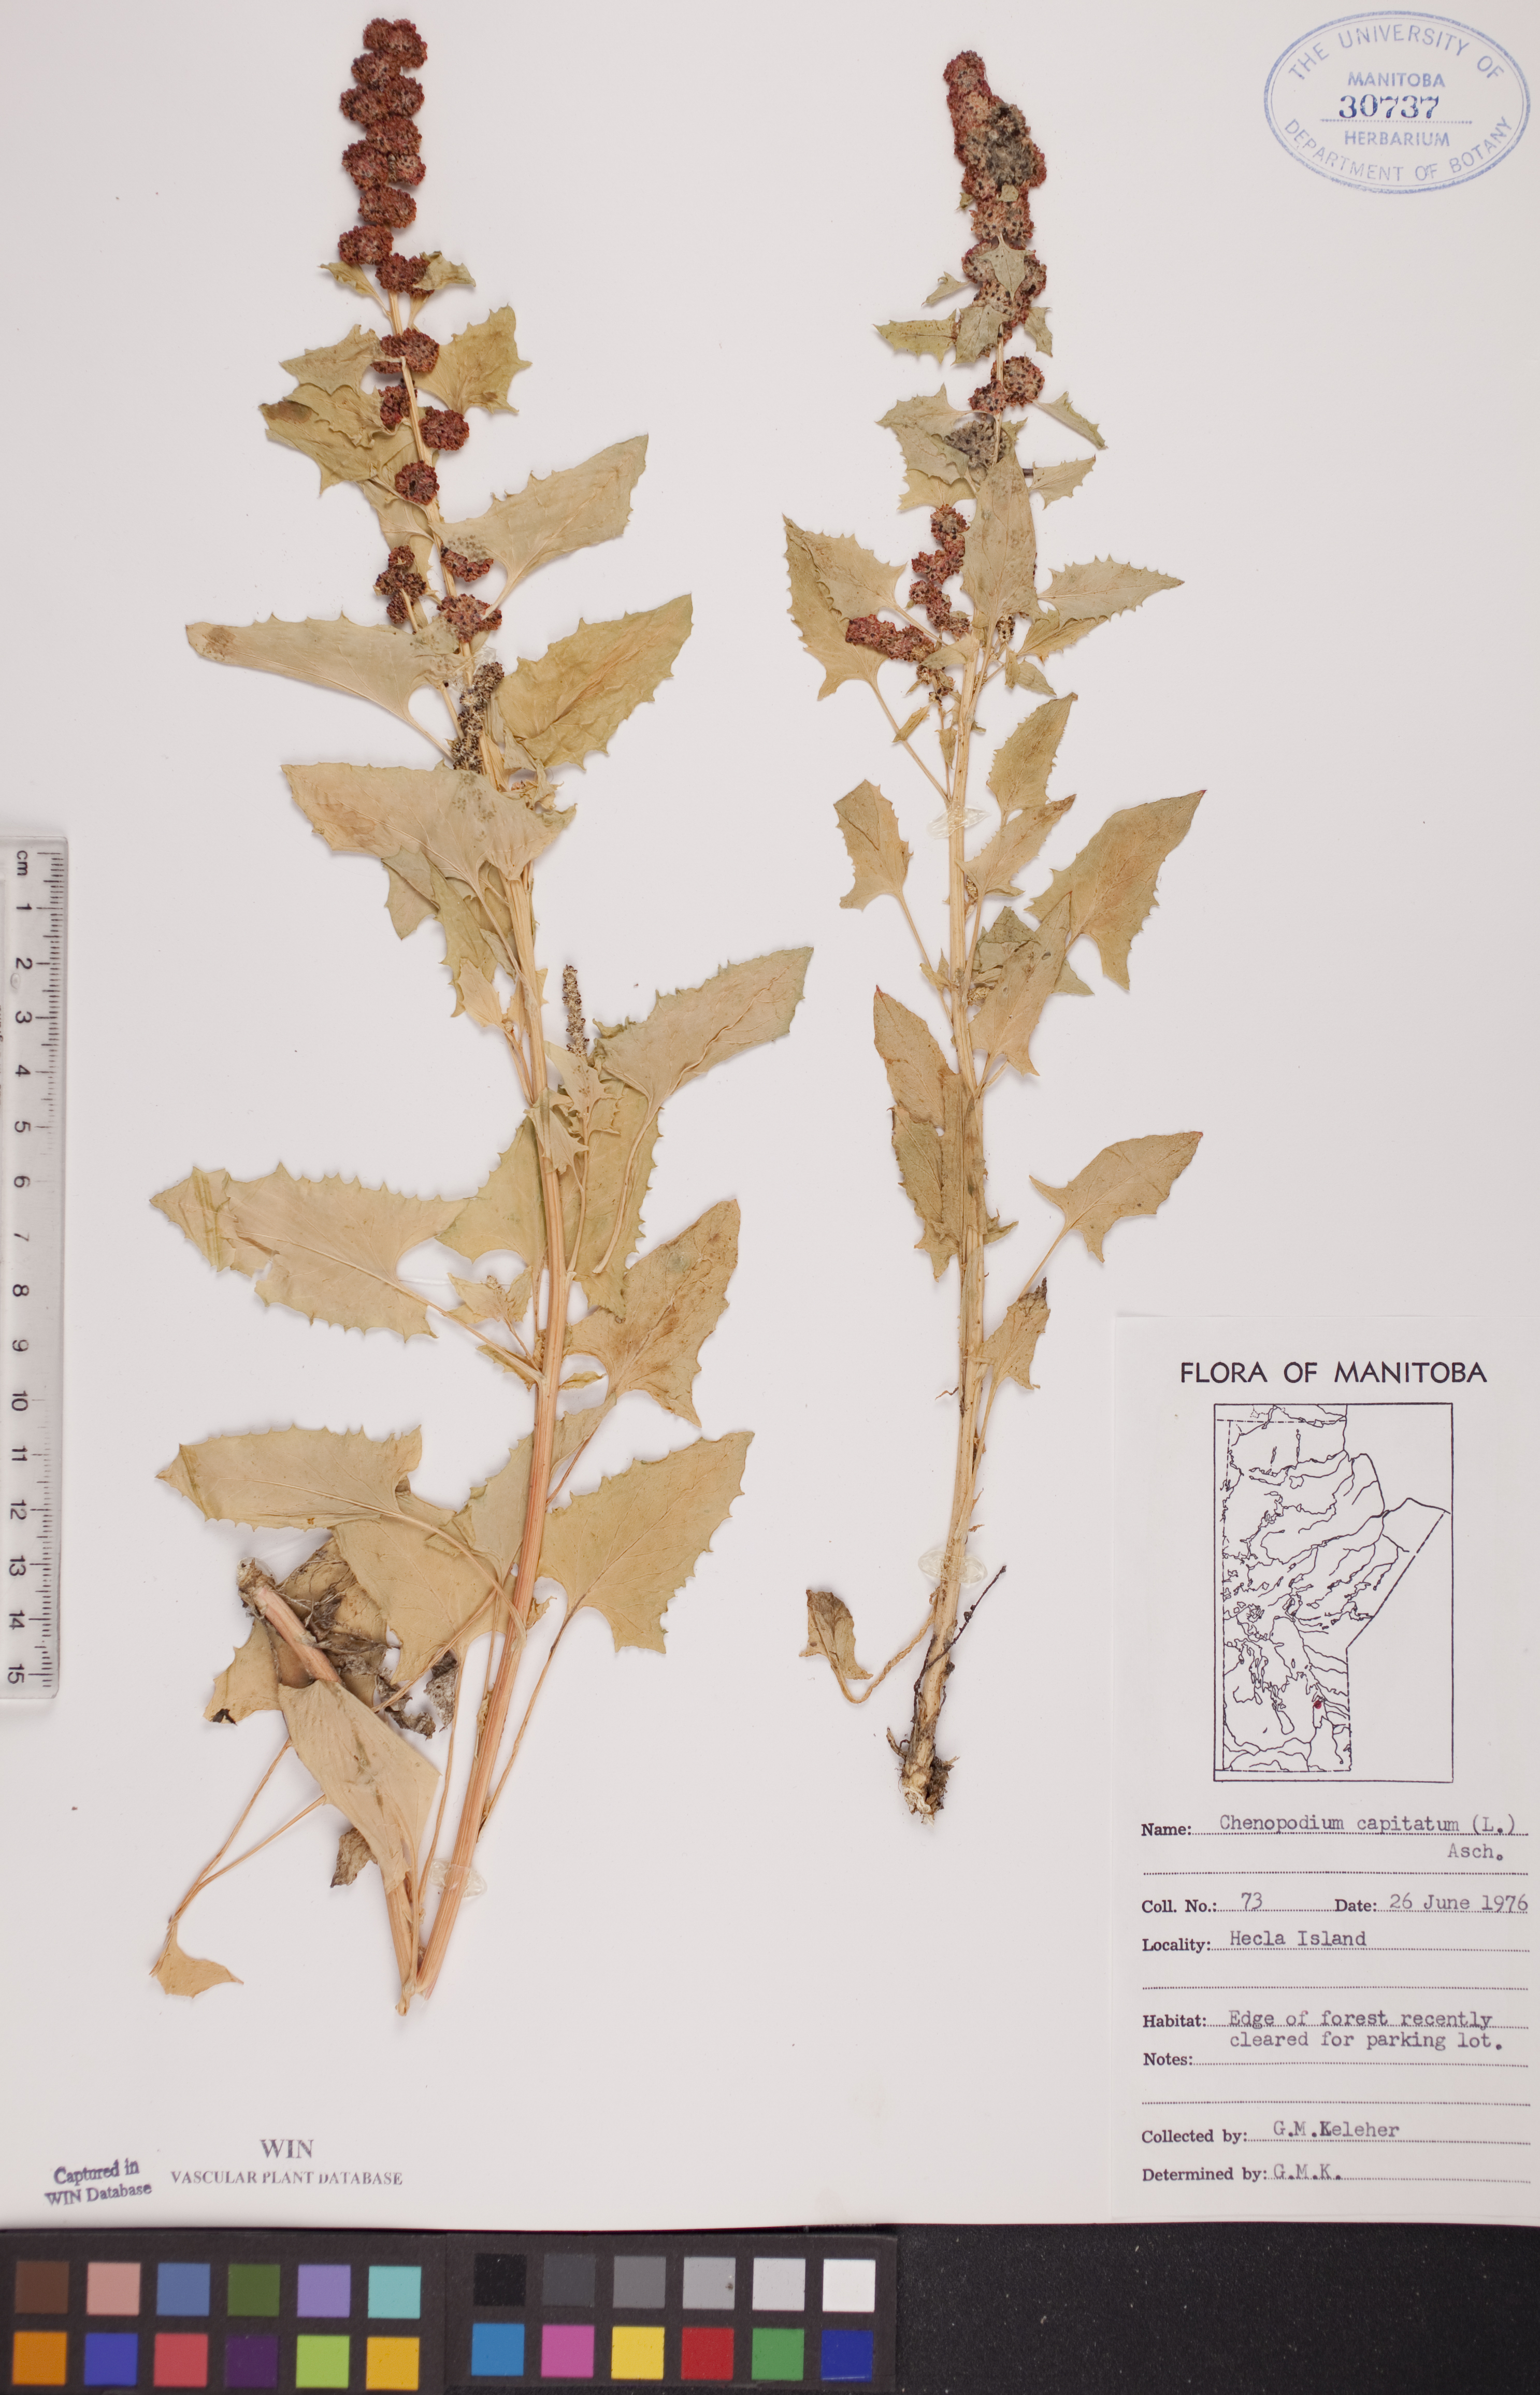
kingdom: Plantae
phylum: Tracheophyta
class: Magnoliopsida
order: Caryophyllales
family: Amaranthaceae
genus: Blitum
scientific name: Blitum capitatum
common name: Strawberry-blight
